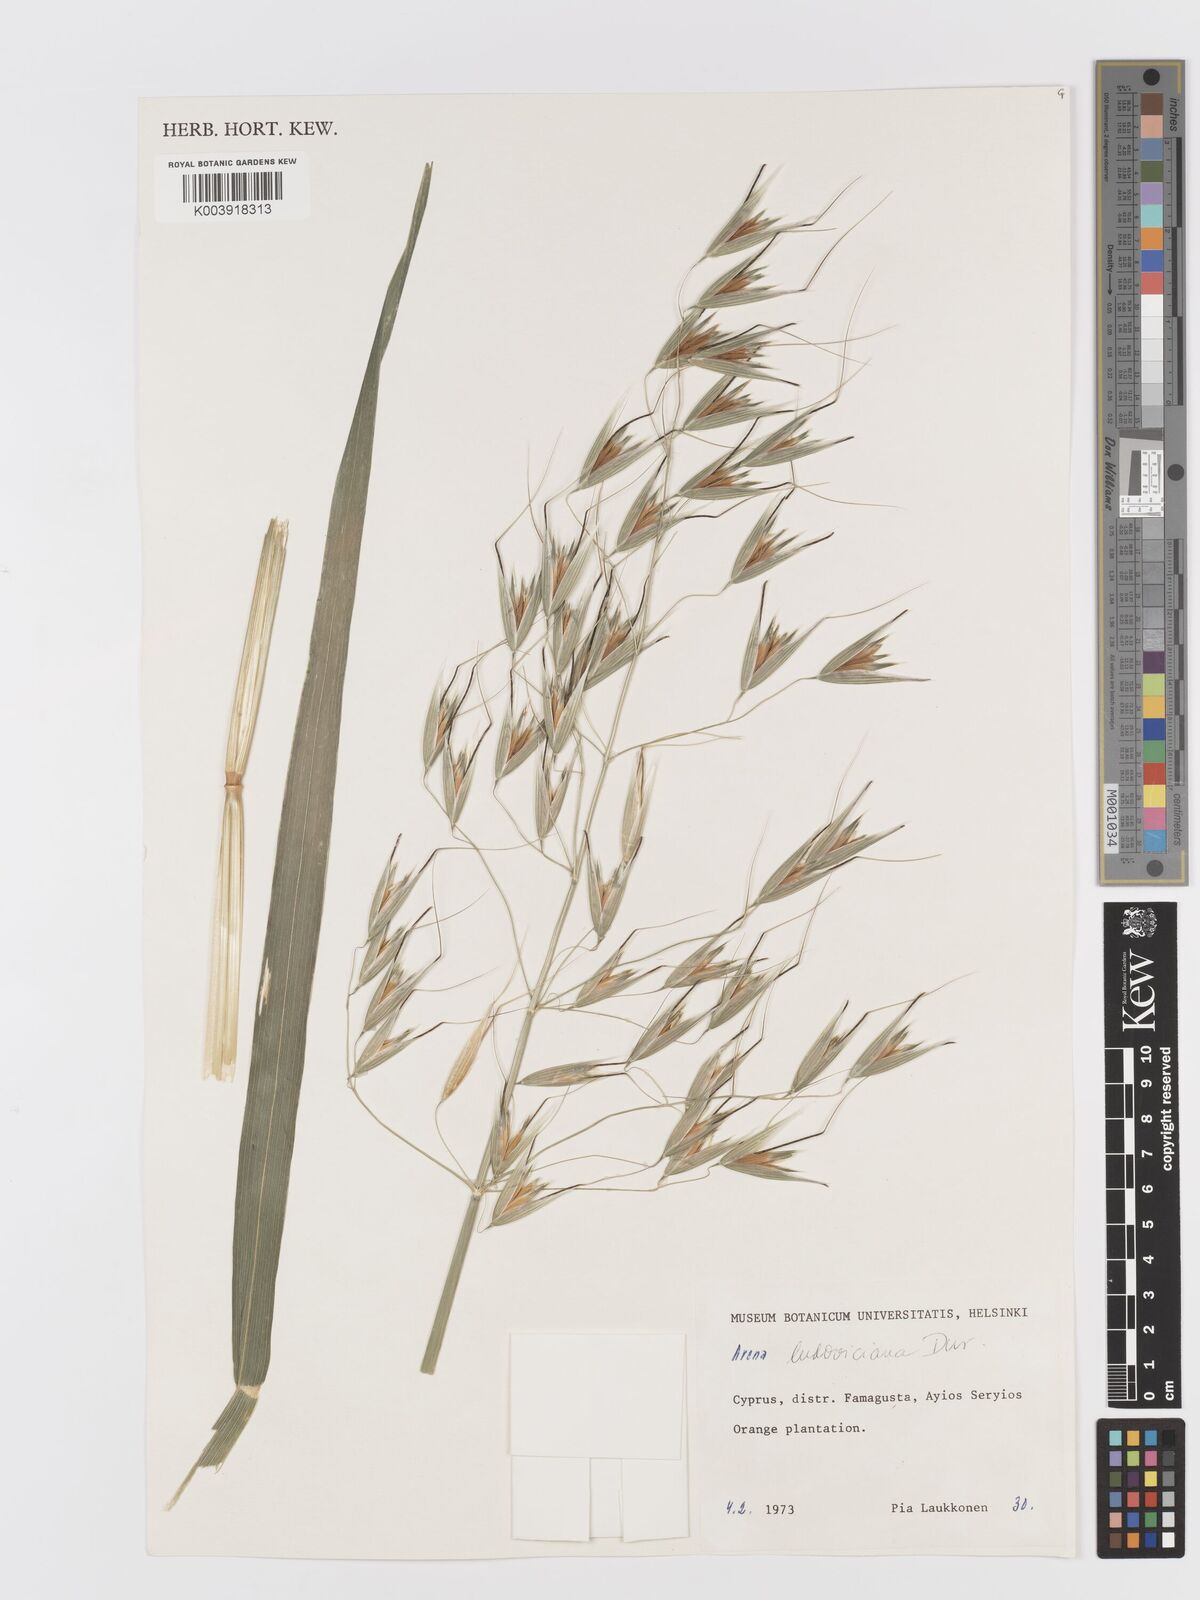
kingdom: Plantae
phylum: Tracheophyta
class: Liliopsida
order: Poales
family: Poaceae
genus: Avena
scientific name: Avena sterilis
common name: Animated oat
